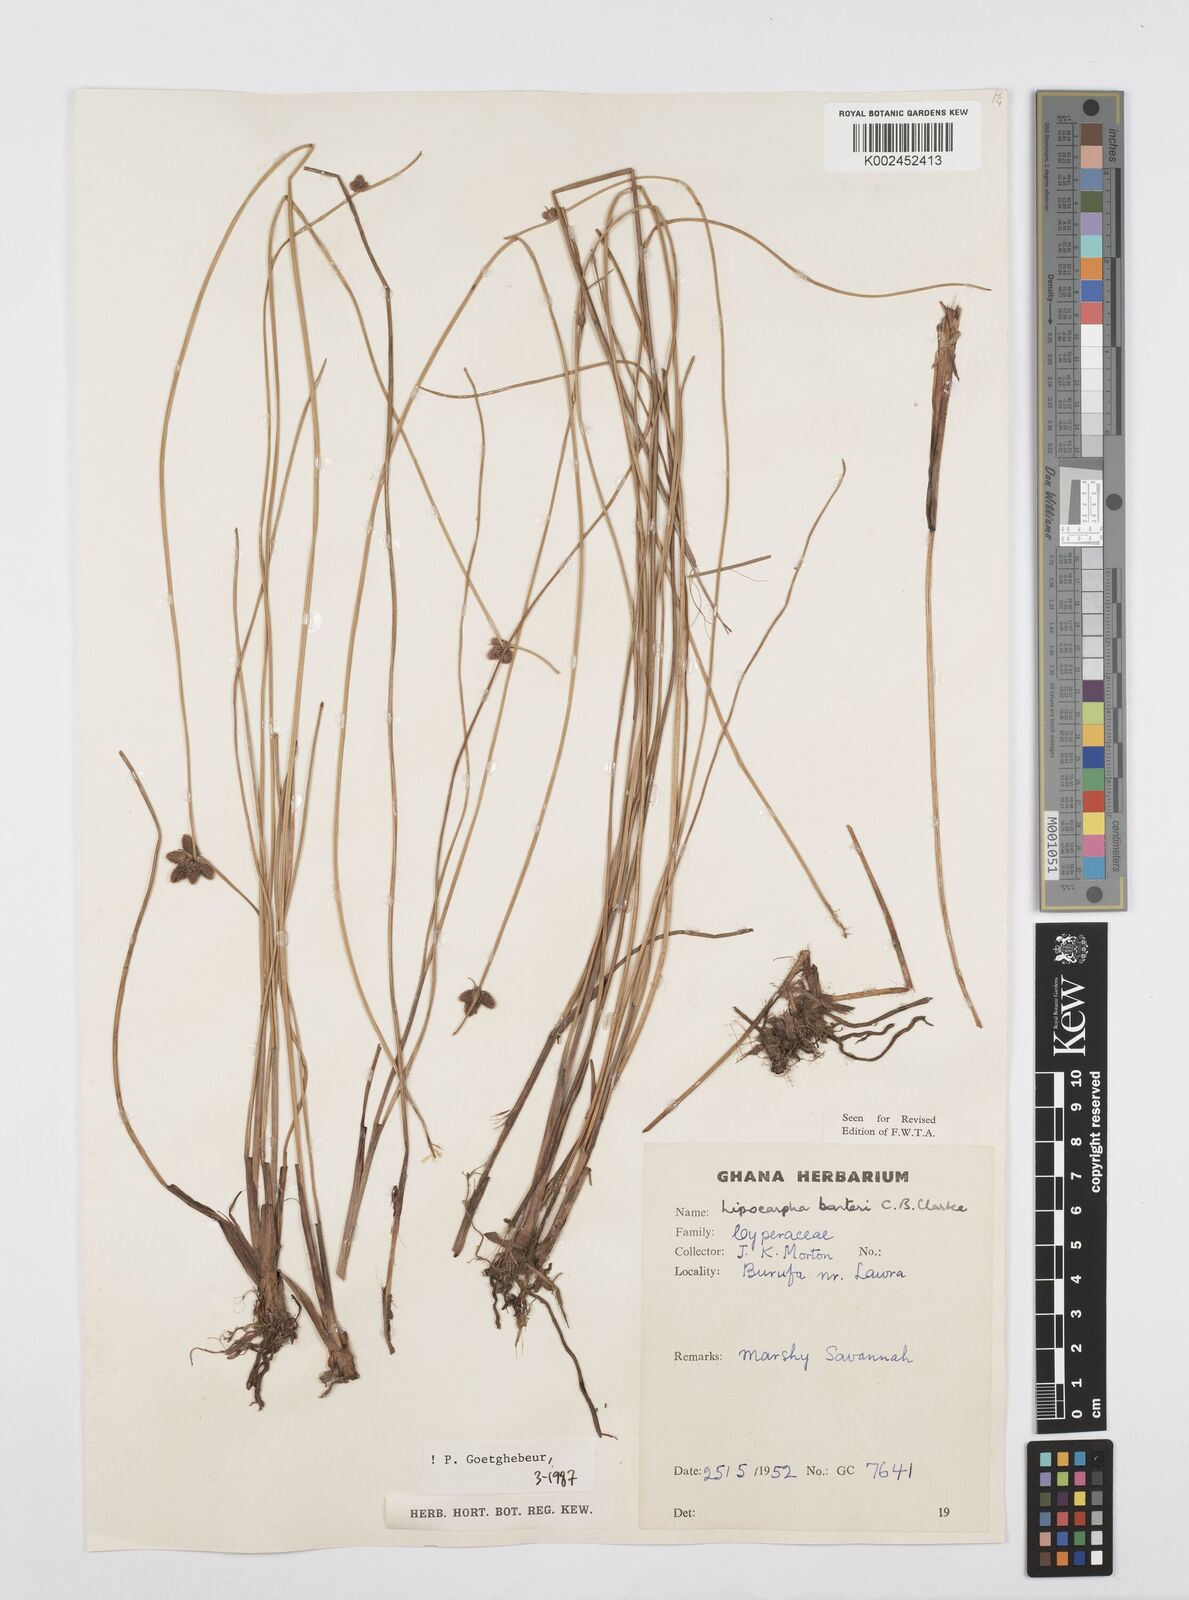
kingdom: Plantae
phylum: Tracheophyta
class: Liliopsida
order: Poales
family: Cyperaceae
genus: Cyperus
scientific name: Cyperus pustulatus
